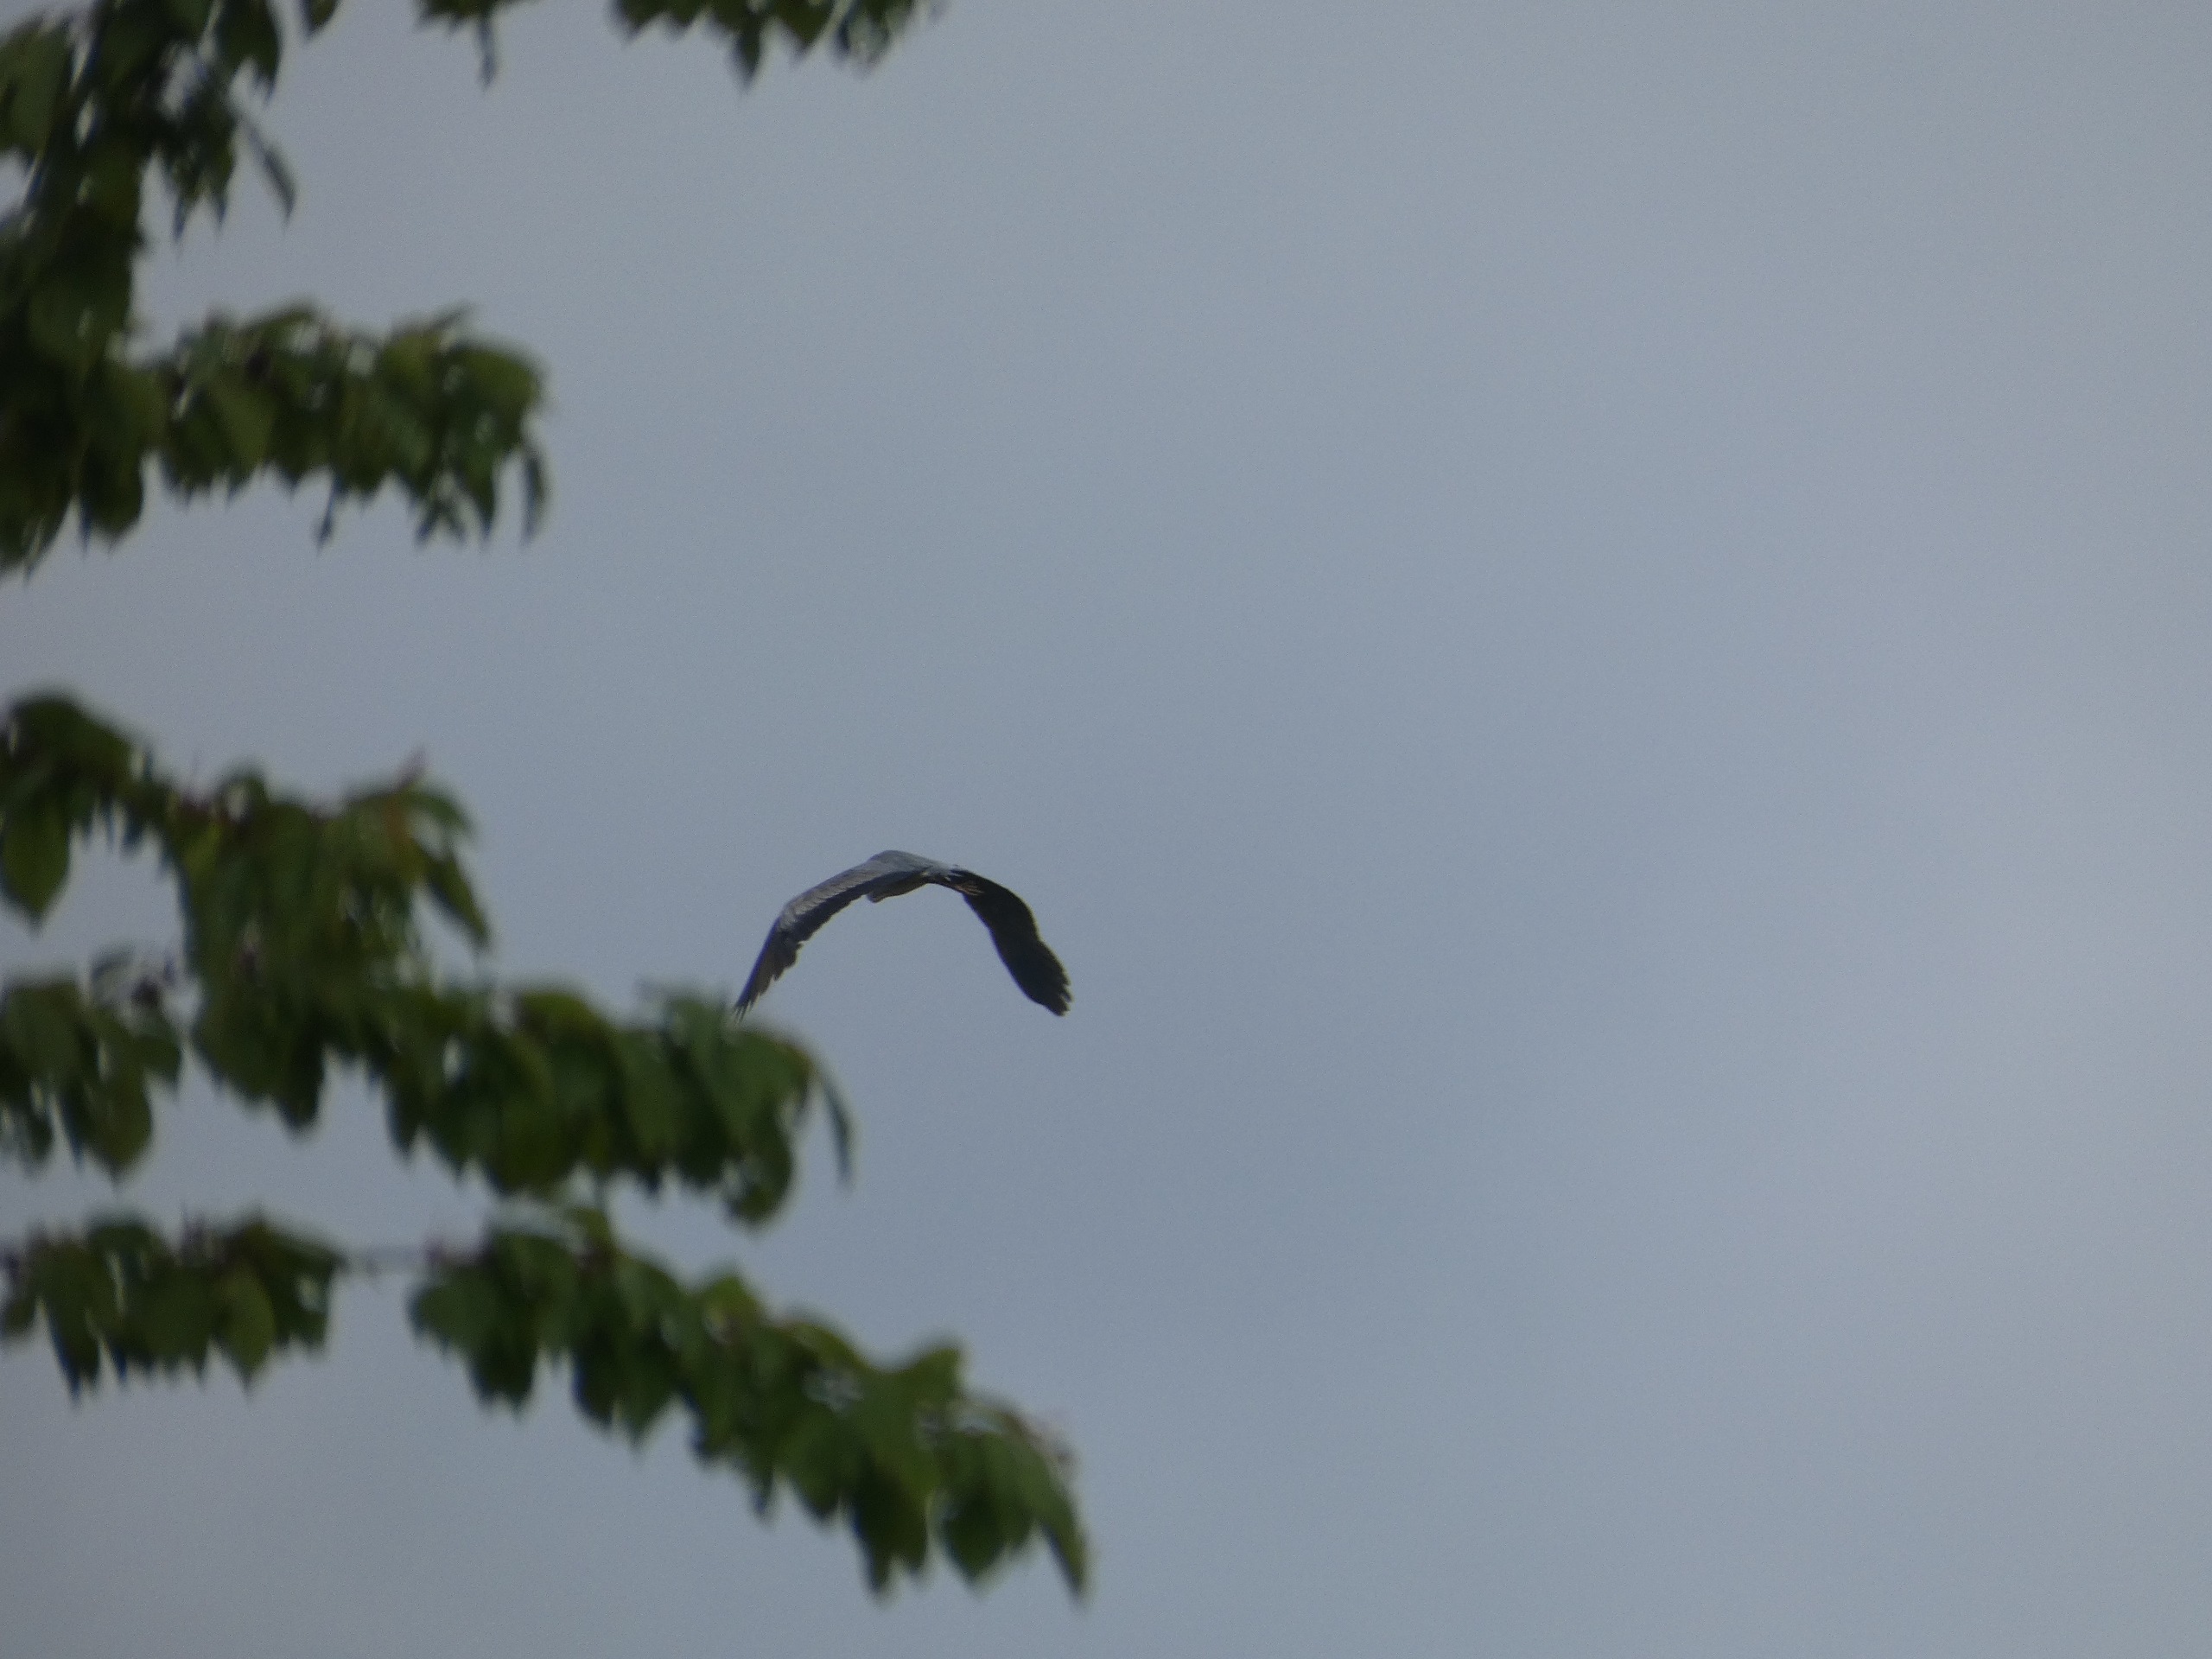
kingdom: Animalia
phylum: Chordata
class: Aves
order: Pelecaniformes
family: Ardeidae
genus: Ardea
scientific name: Ardea cinerea
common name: Fiskehejre
